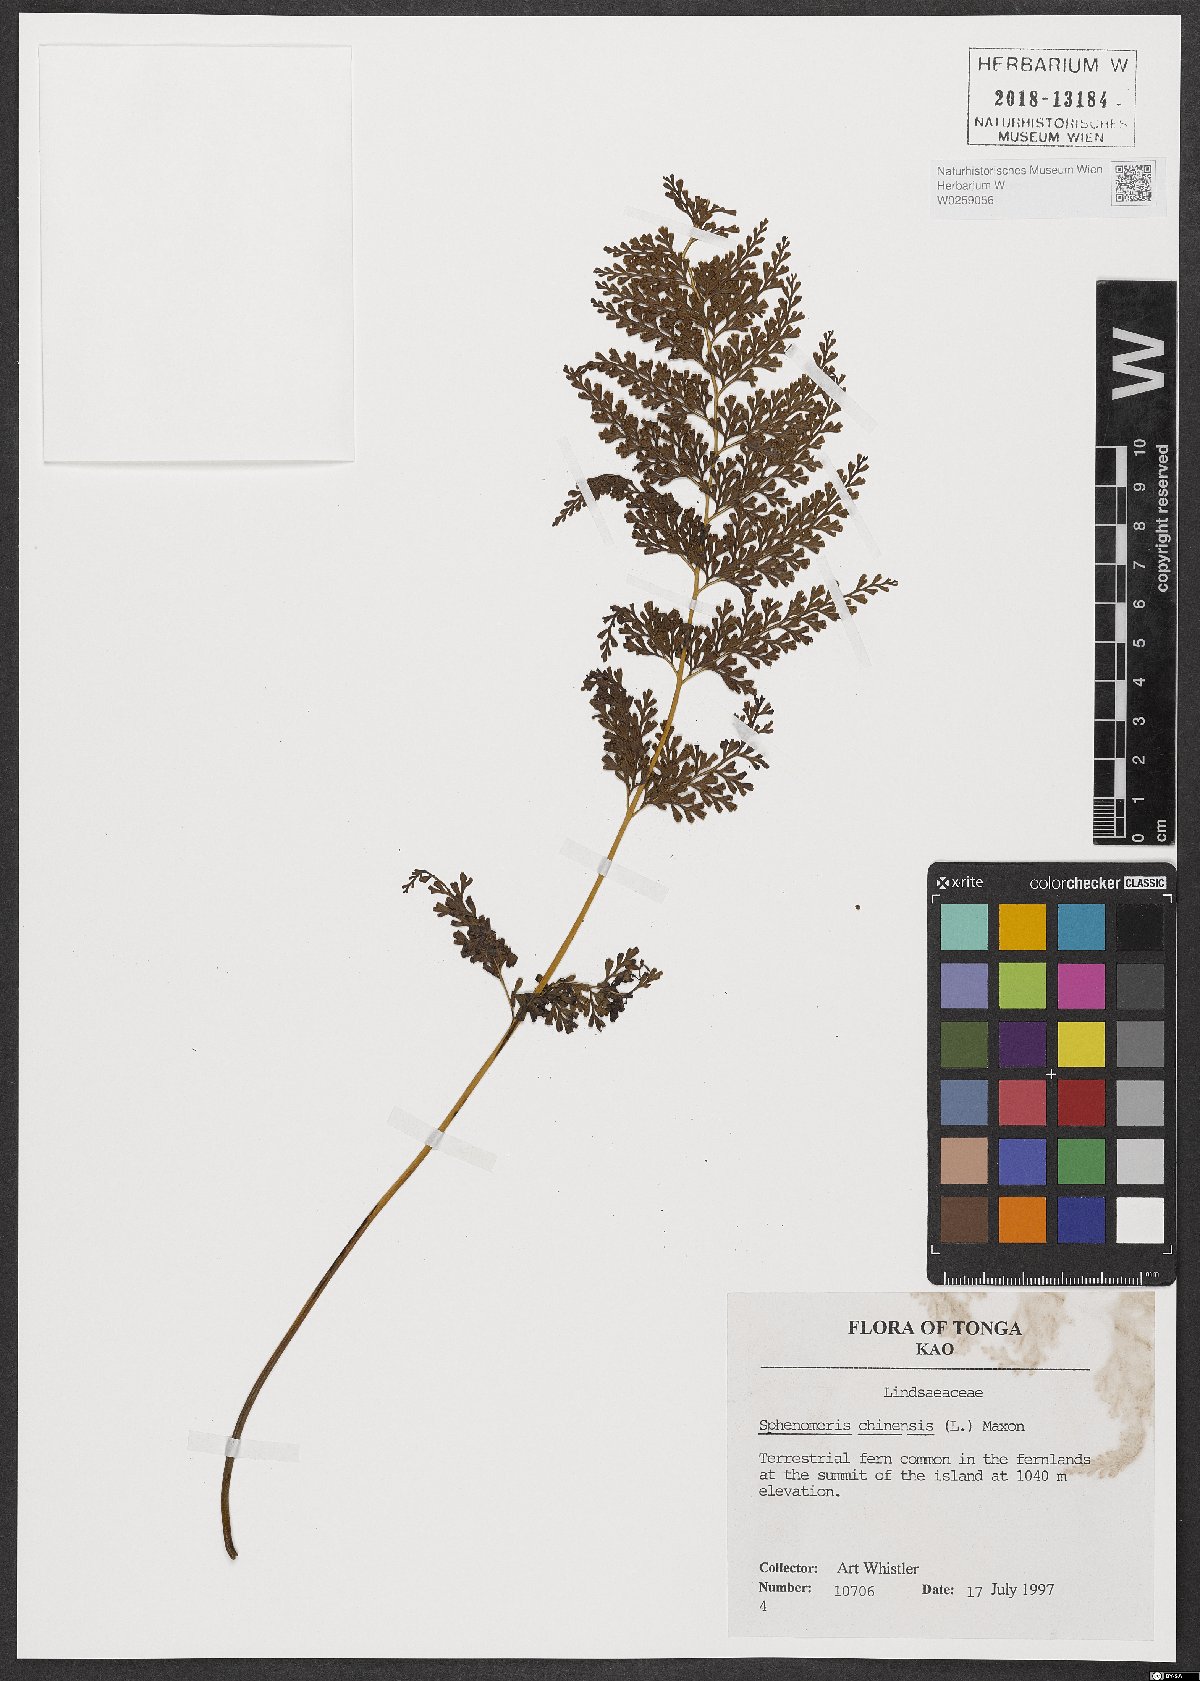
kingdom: Plantae
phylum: Tracheophyta
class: Polypodiopsida
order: Polypodiales
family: Lindsaeaceae
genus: Odontosoria
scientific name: Odontosoria chinensis
